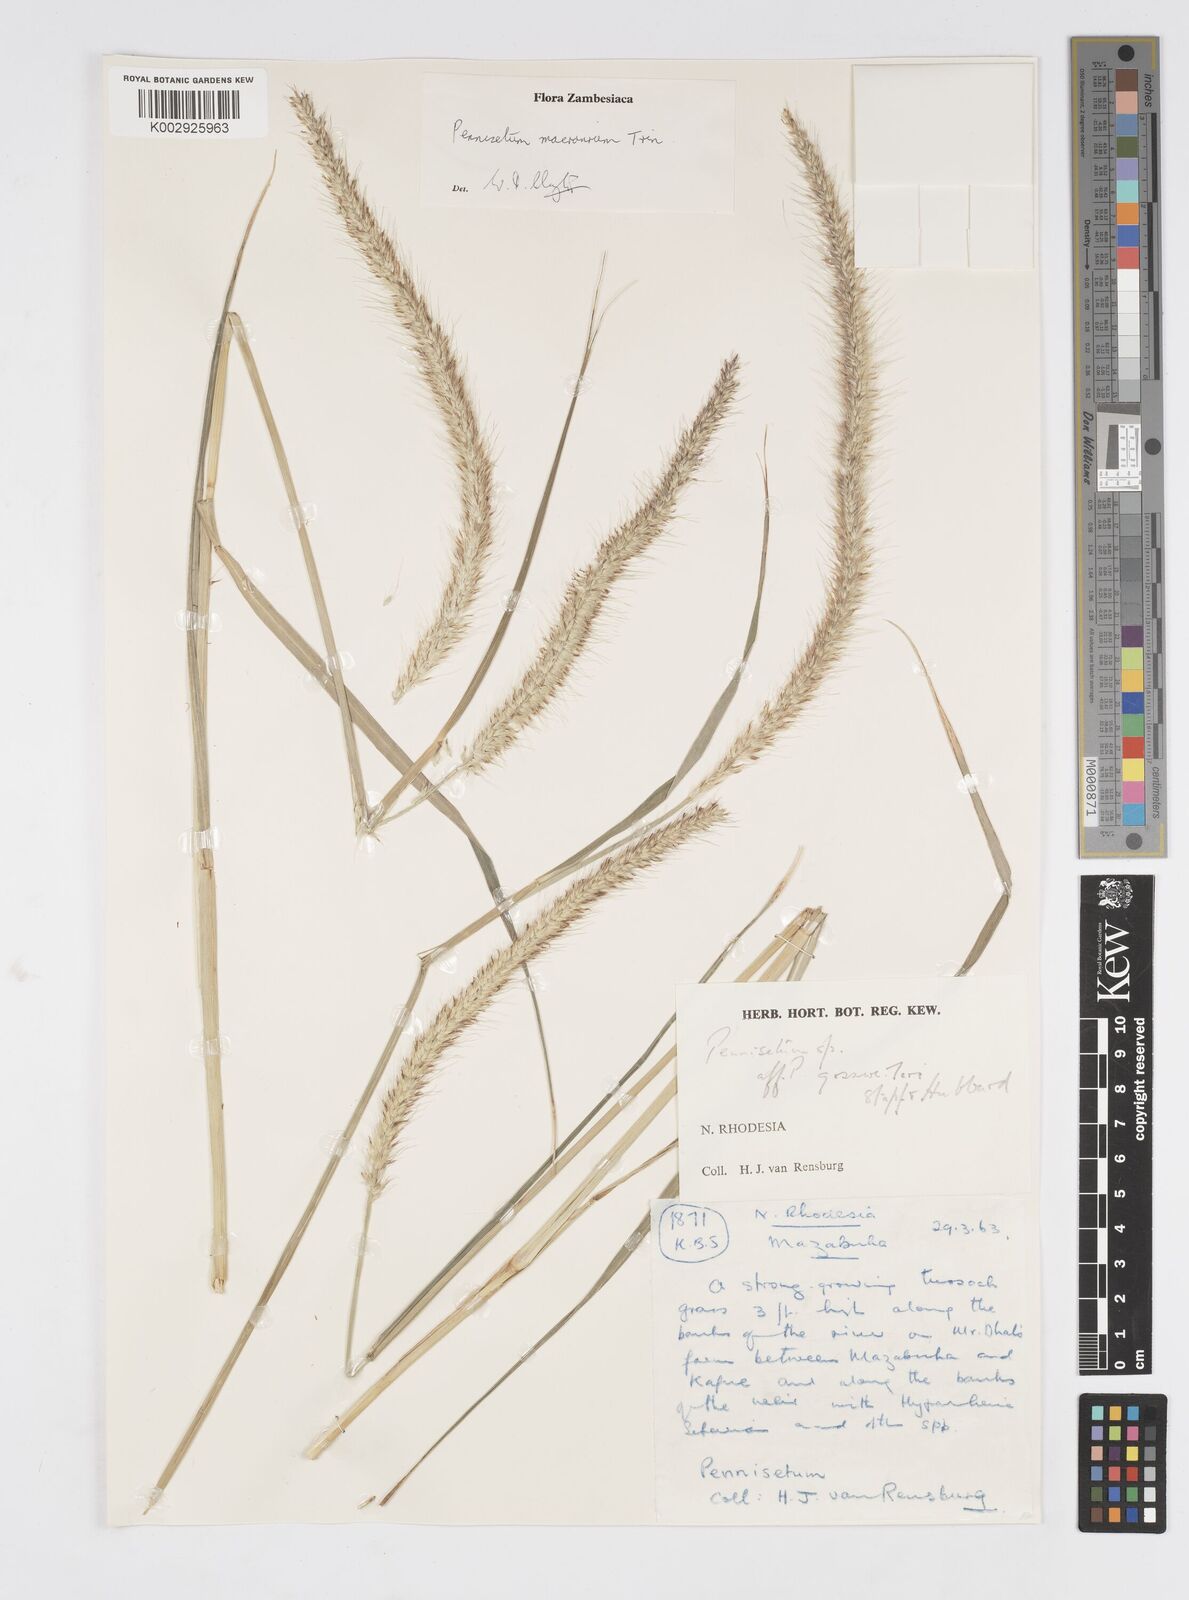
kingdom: Plantae
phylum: Tracheophyta
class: Liliopsida
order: Poales
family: Poaceae
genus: Cenchrus
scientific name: Cenchrus caudatus
